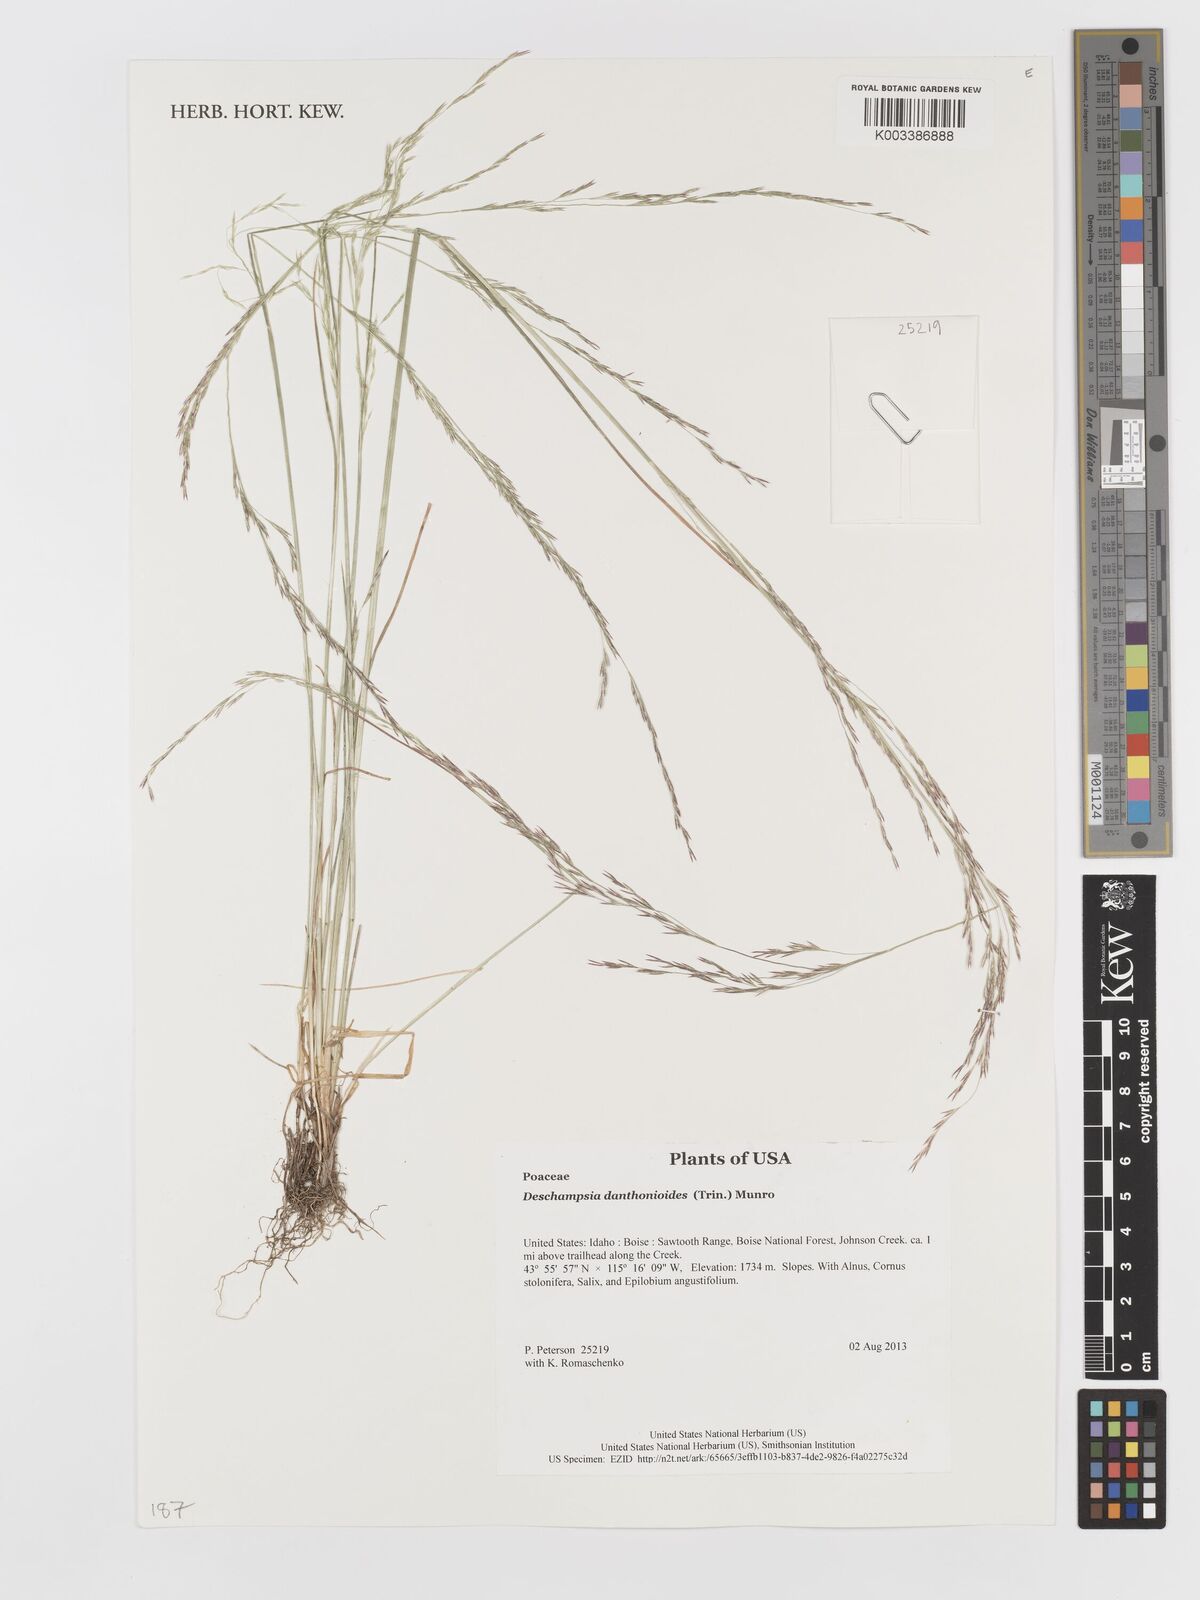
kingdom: Plantae
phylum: Tracheophyta
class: Liliopsida
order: Poales
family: Poaceae
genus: Deschampsia
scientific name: Deschampsia danthonioides
